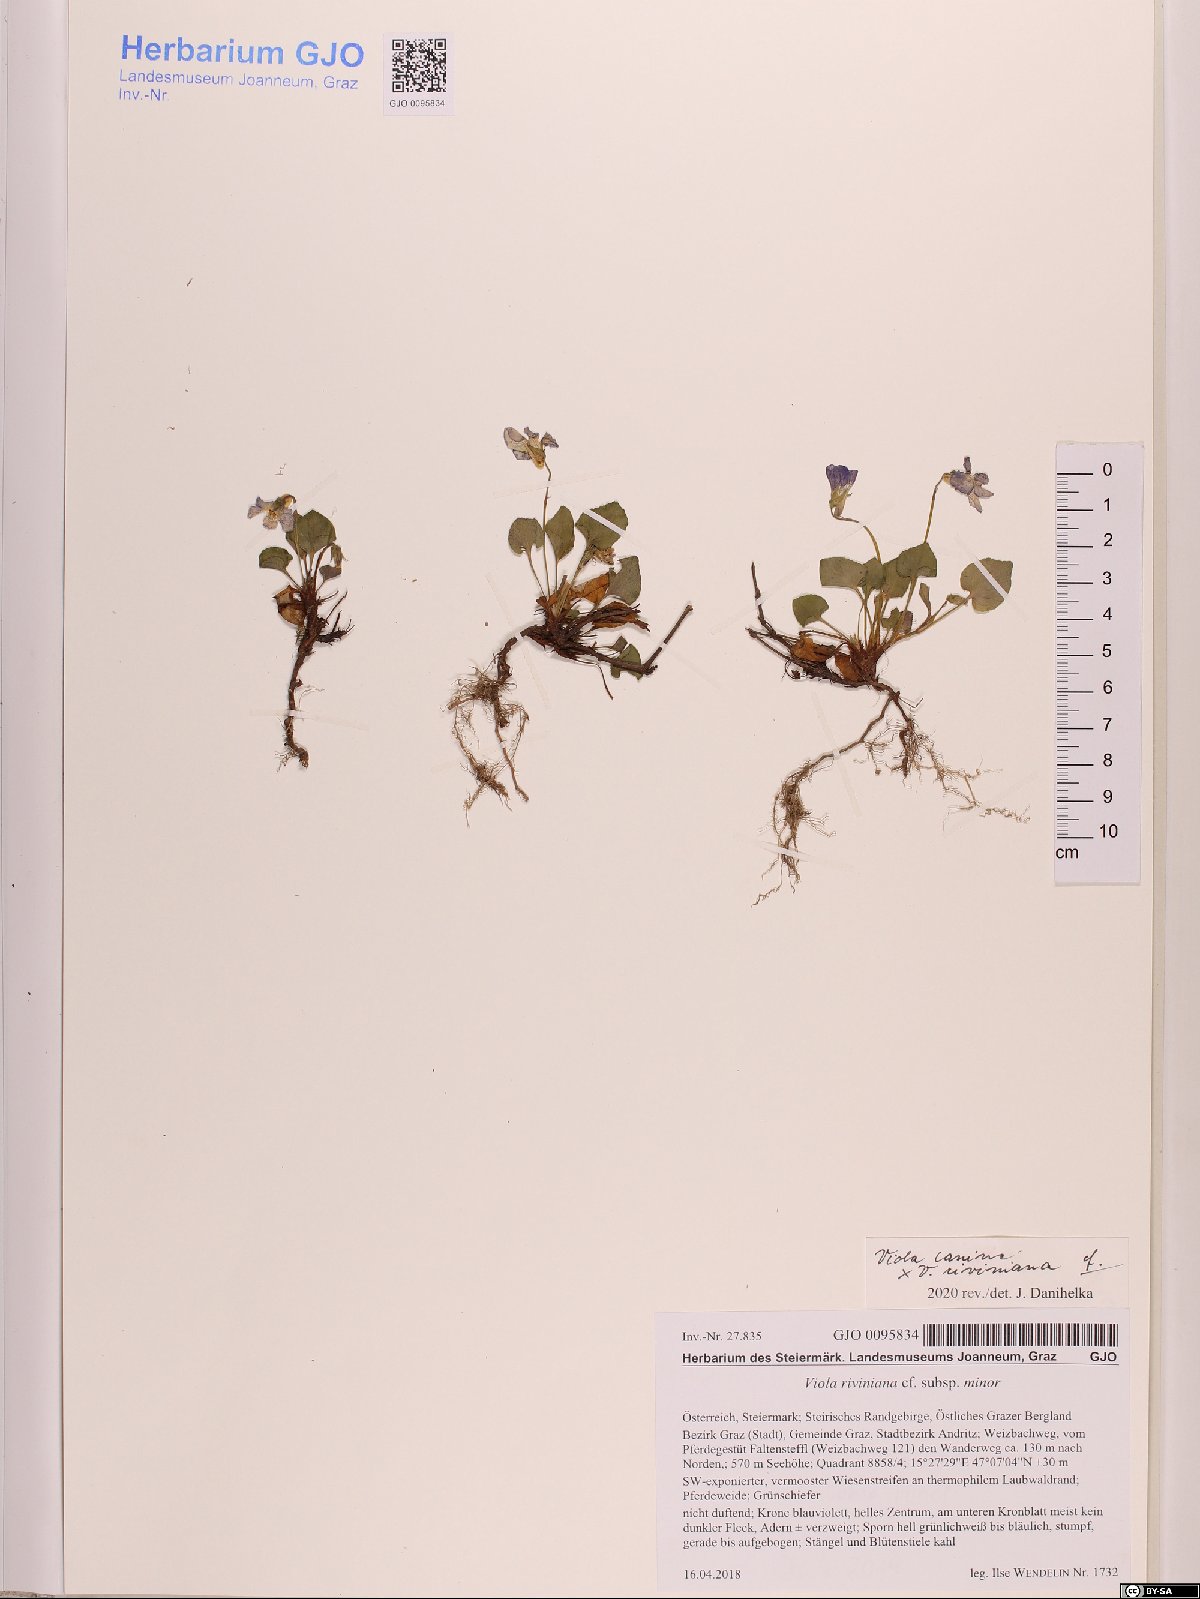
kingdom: Plantae
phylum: Tracheophyta
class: Magnoliopsida
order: Malpighiales
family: Violaceae
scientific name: Violaceae
